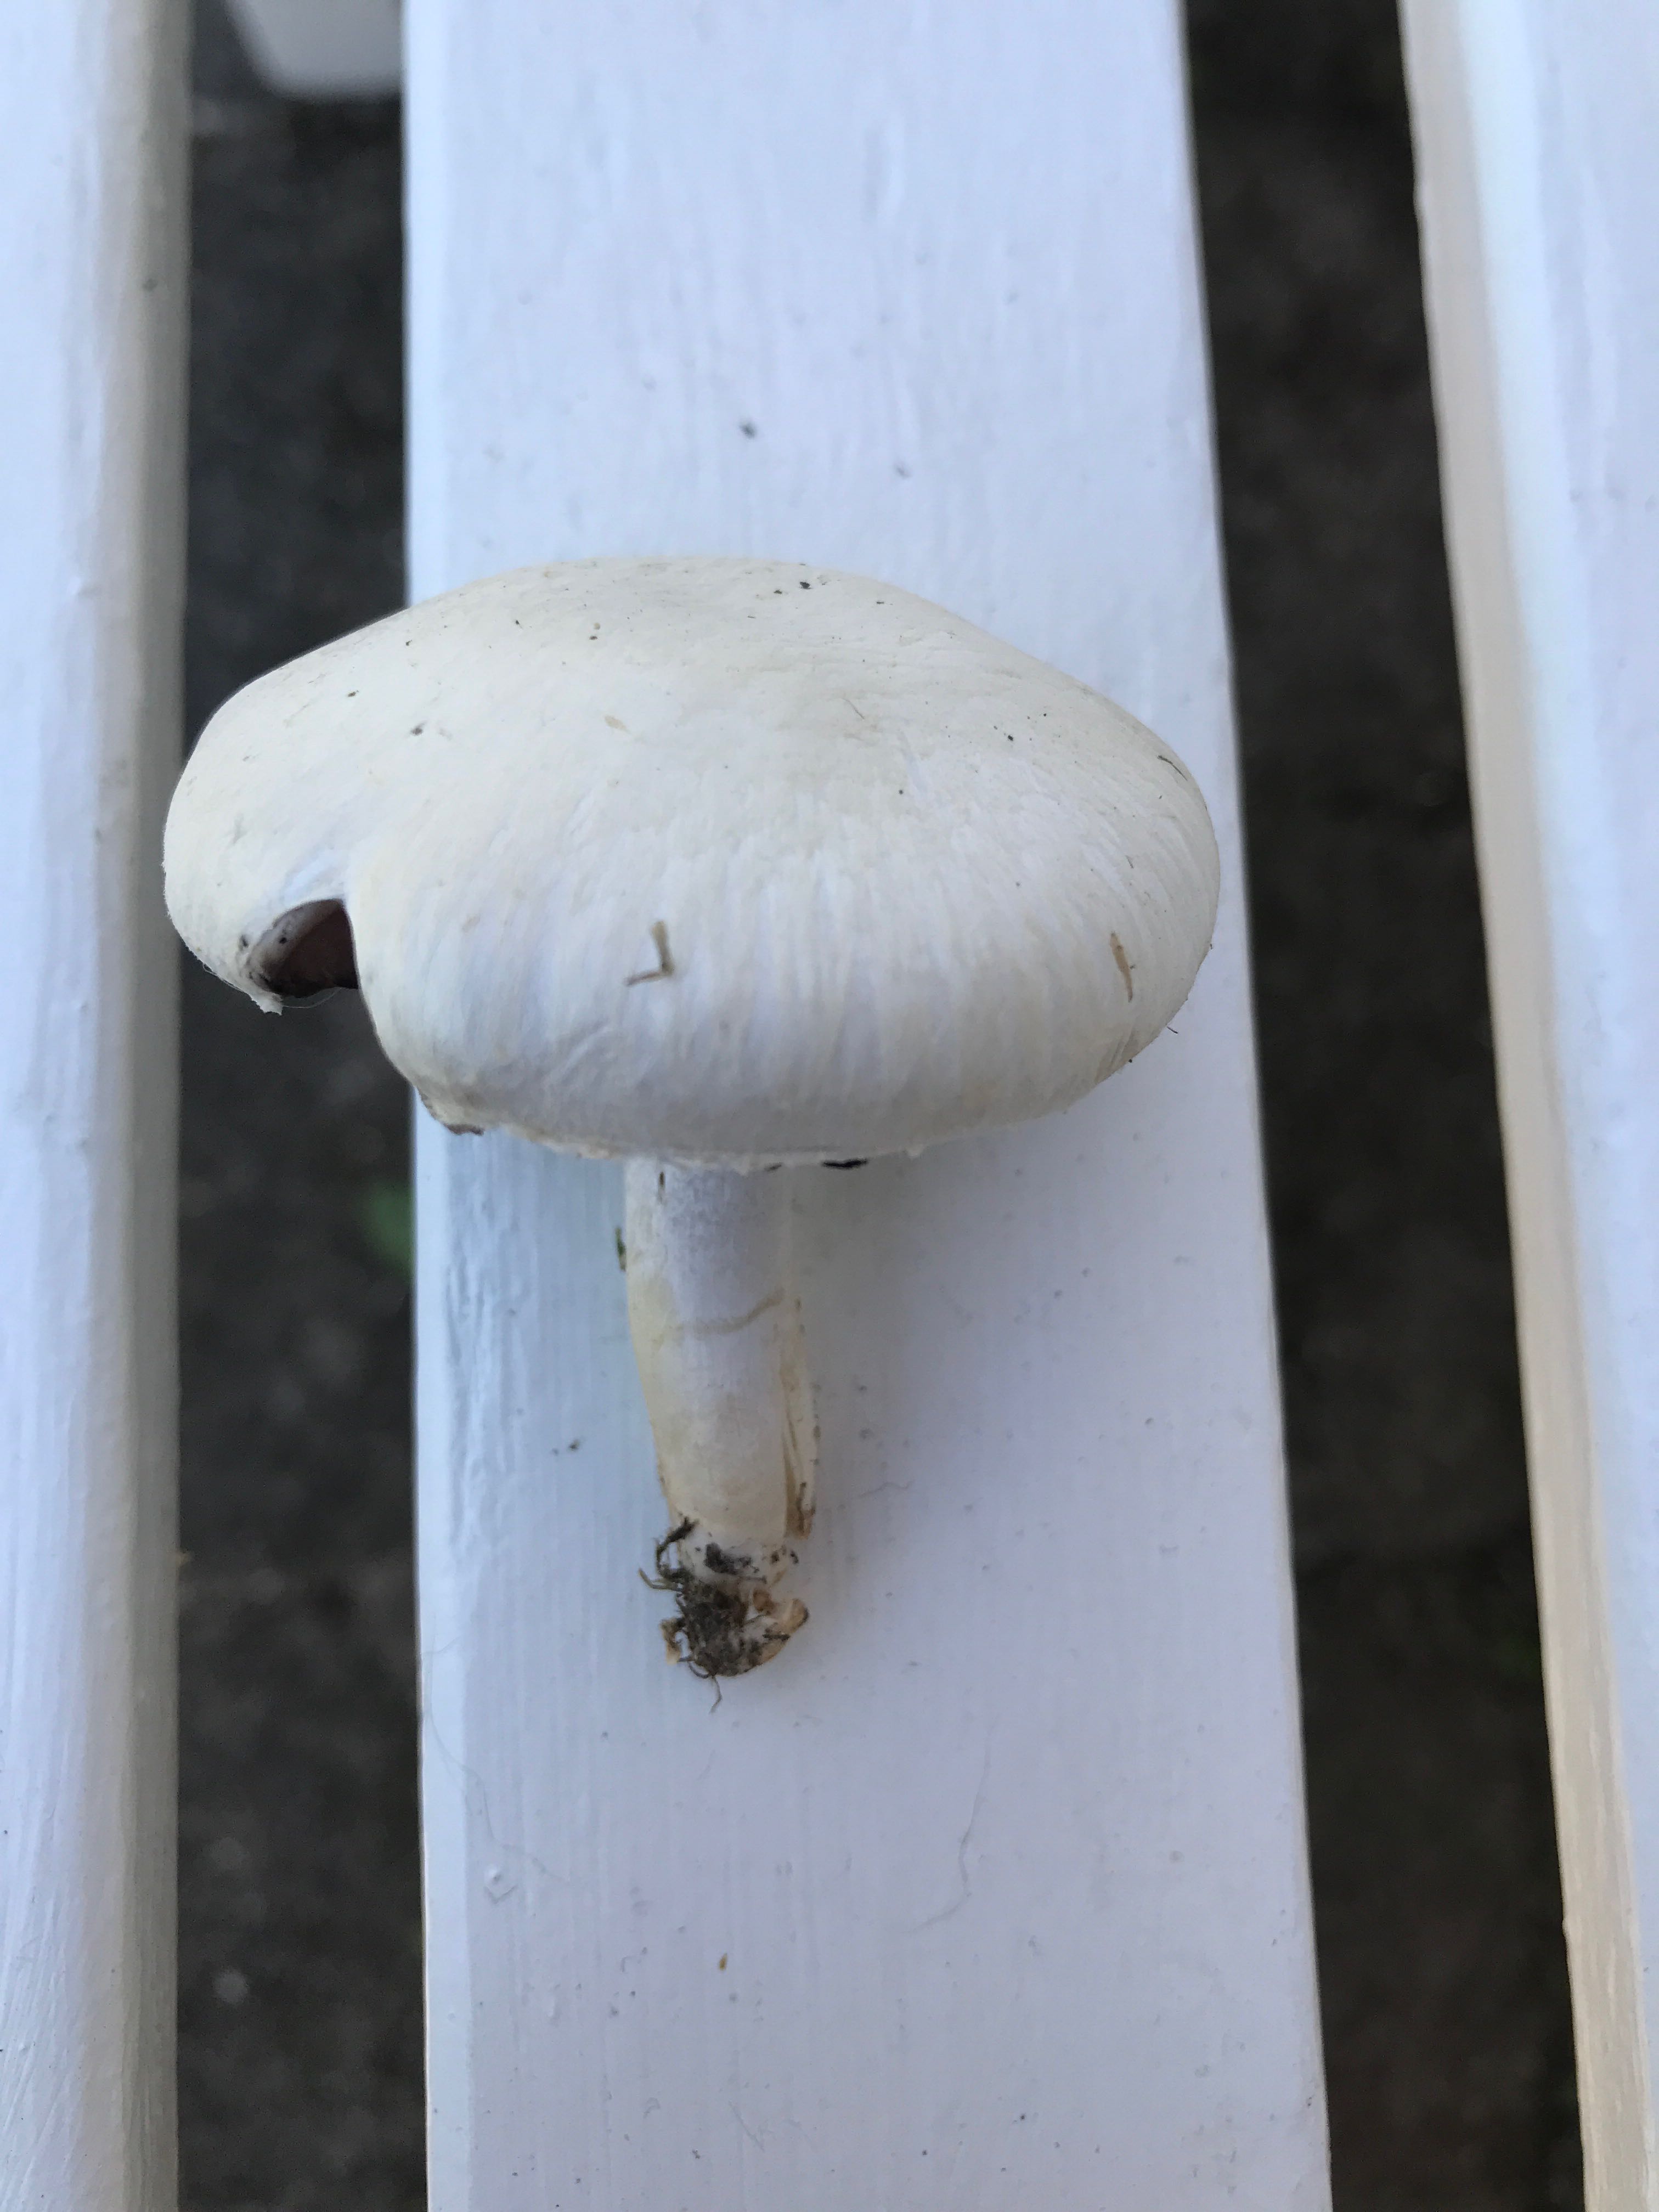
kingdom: Fungi
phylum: Basidiomycota
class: Agaricomycetes
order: Agaricales
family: Agaricaceae
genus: Agaricus
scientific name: Agaricus campestris
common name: mark-champignon
